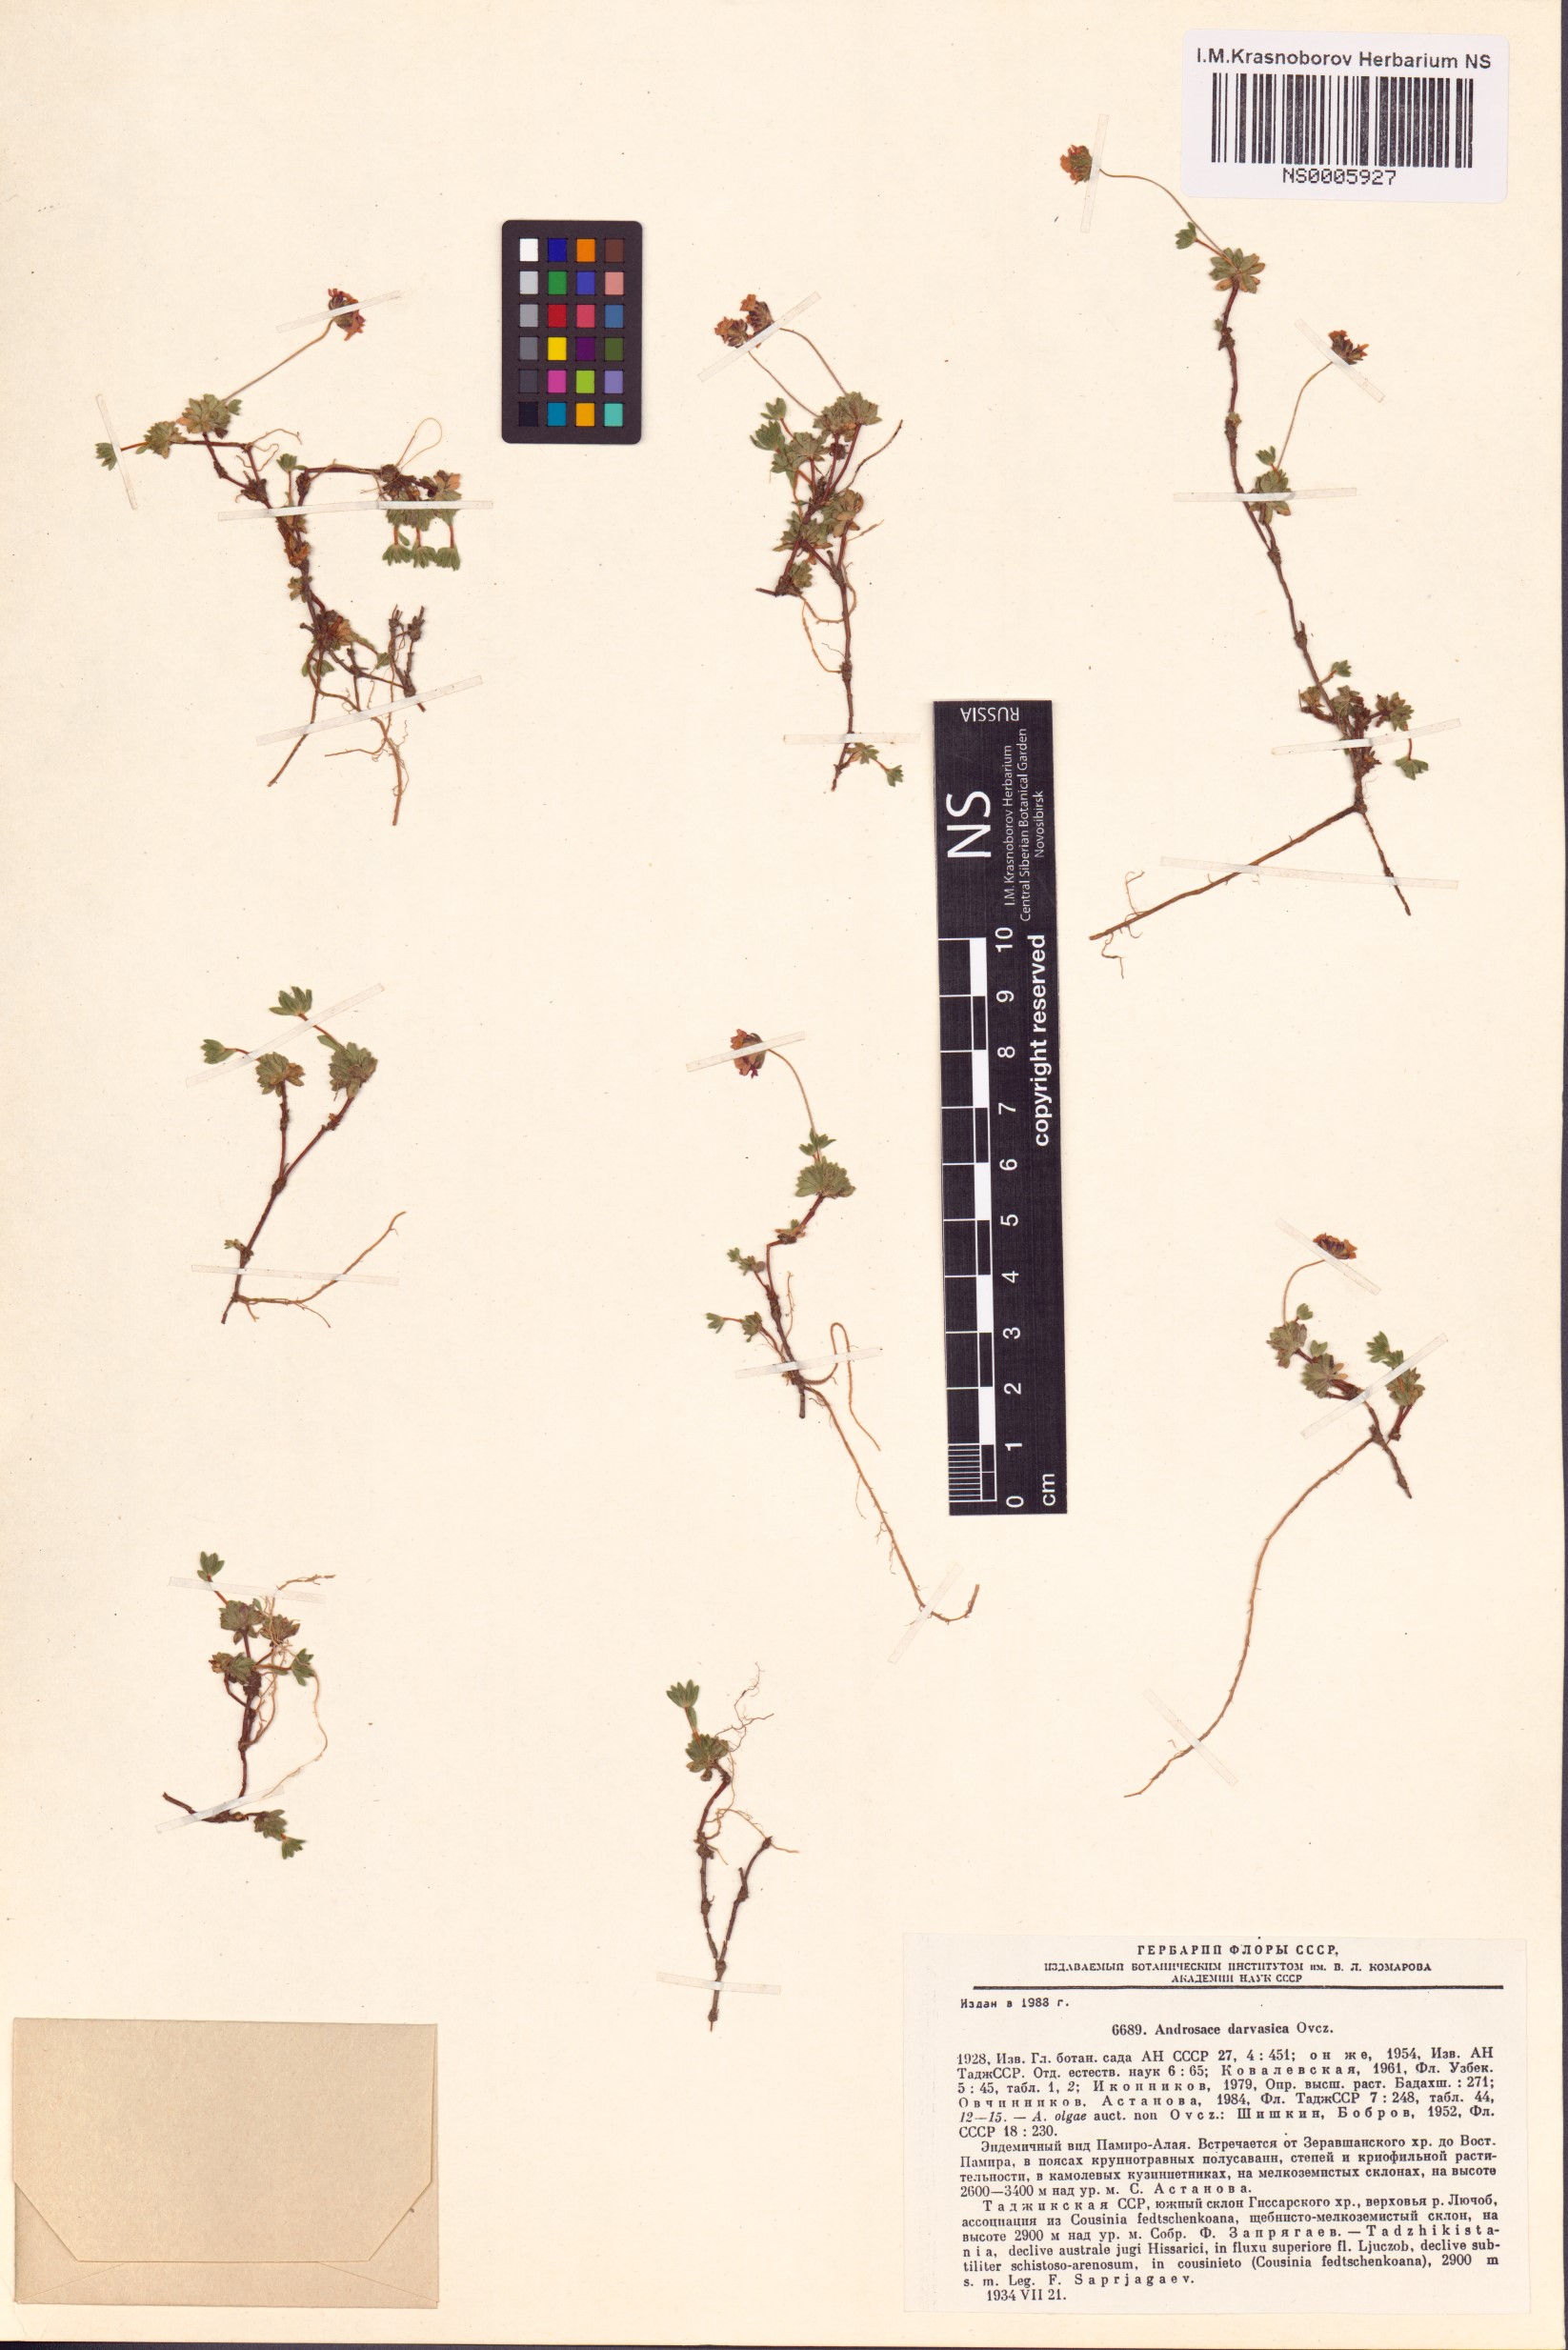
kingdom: Plantae
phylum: Tracheophyta
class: Magnoliopsida
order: Ericales
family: Primulaceae
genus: Androsace
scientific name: Androsace darvasica
